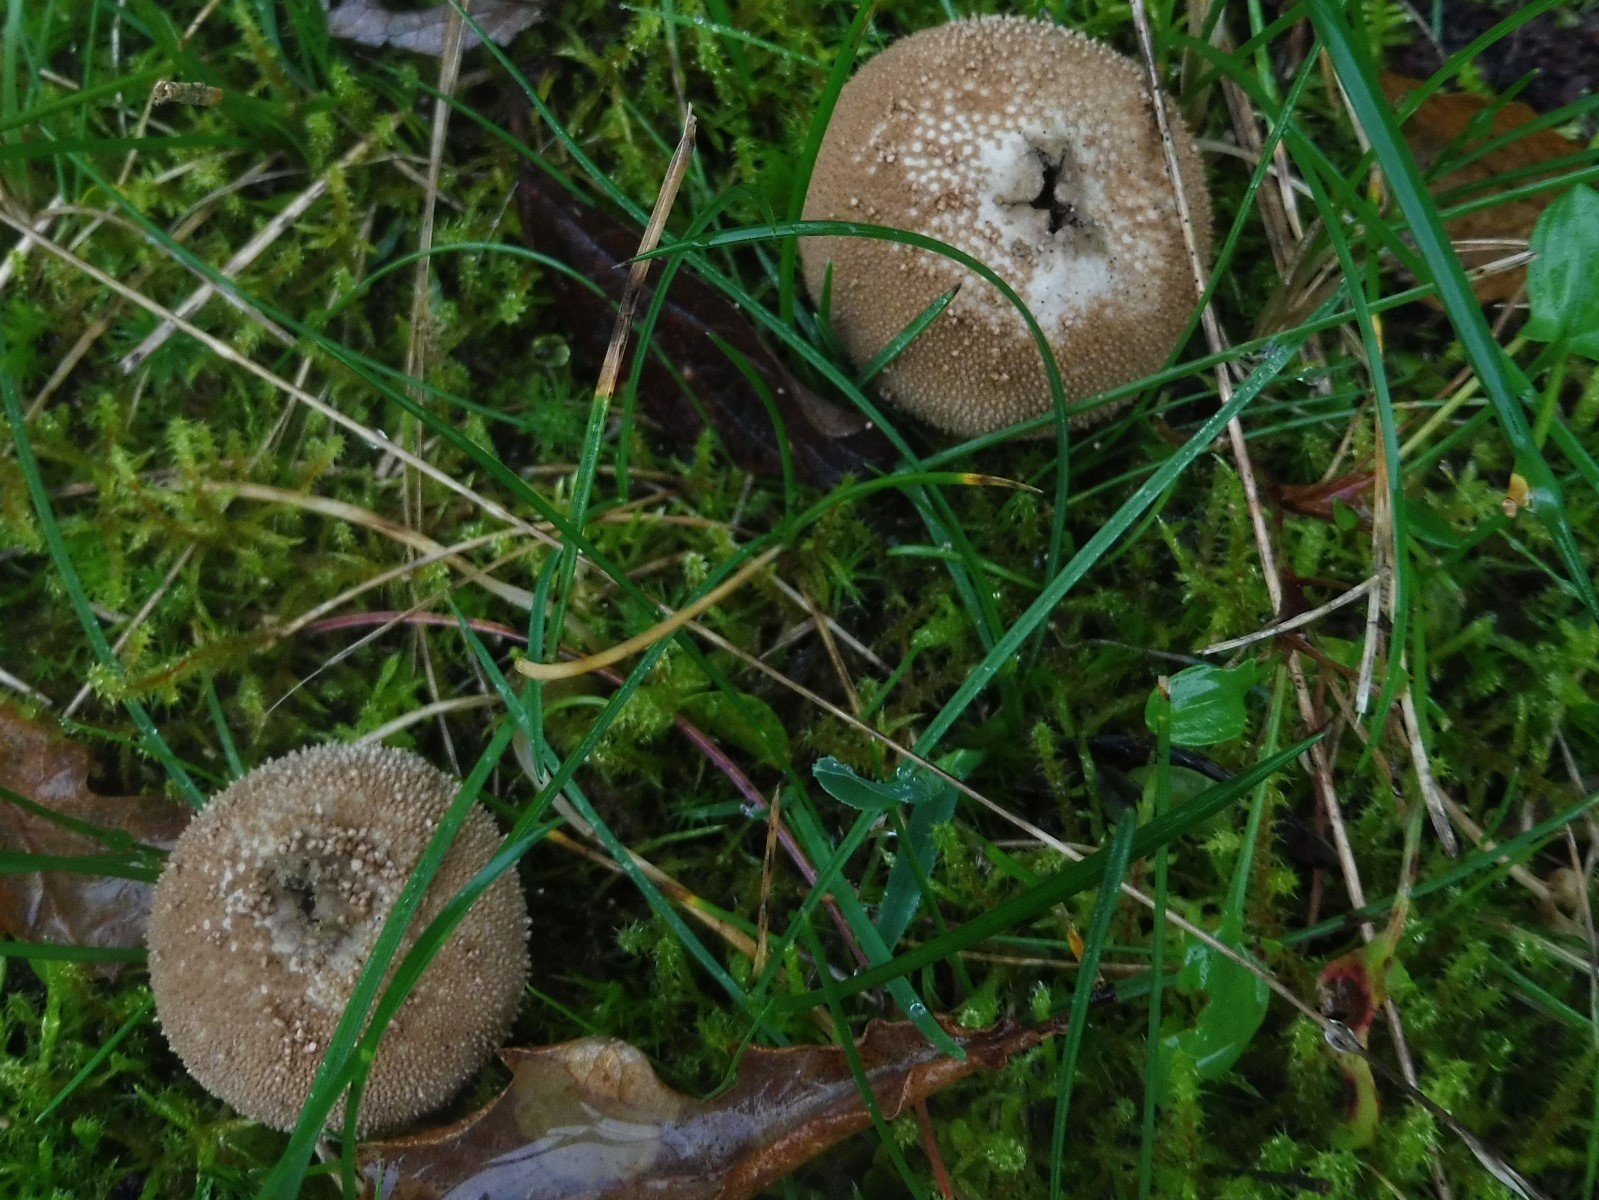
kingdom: Fungi
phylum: Basidiomycota
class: Agaricomycetes
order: Agaricales
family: Lycoperdaceae
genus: Lycoperdon
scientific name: Lycoperdon perlatum
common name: krystal-støvbold
